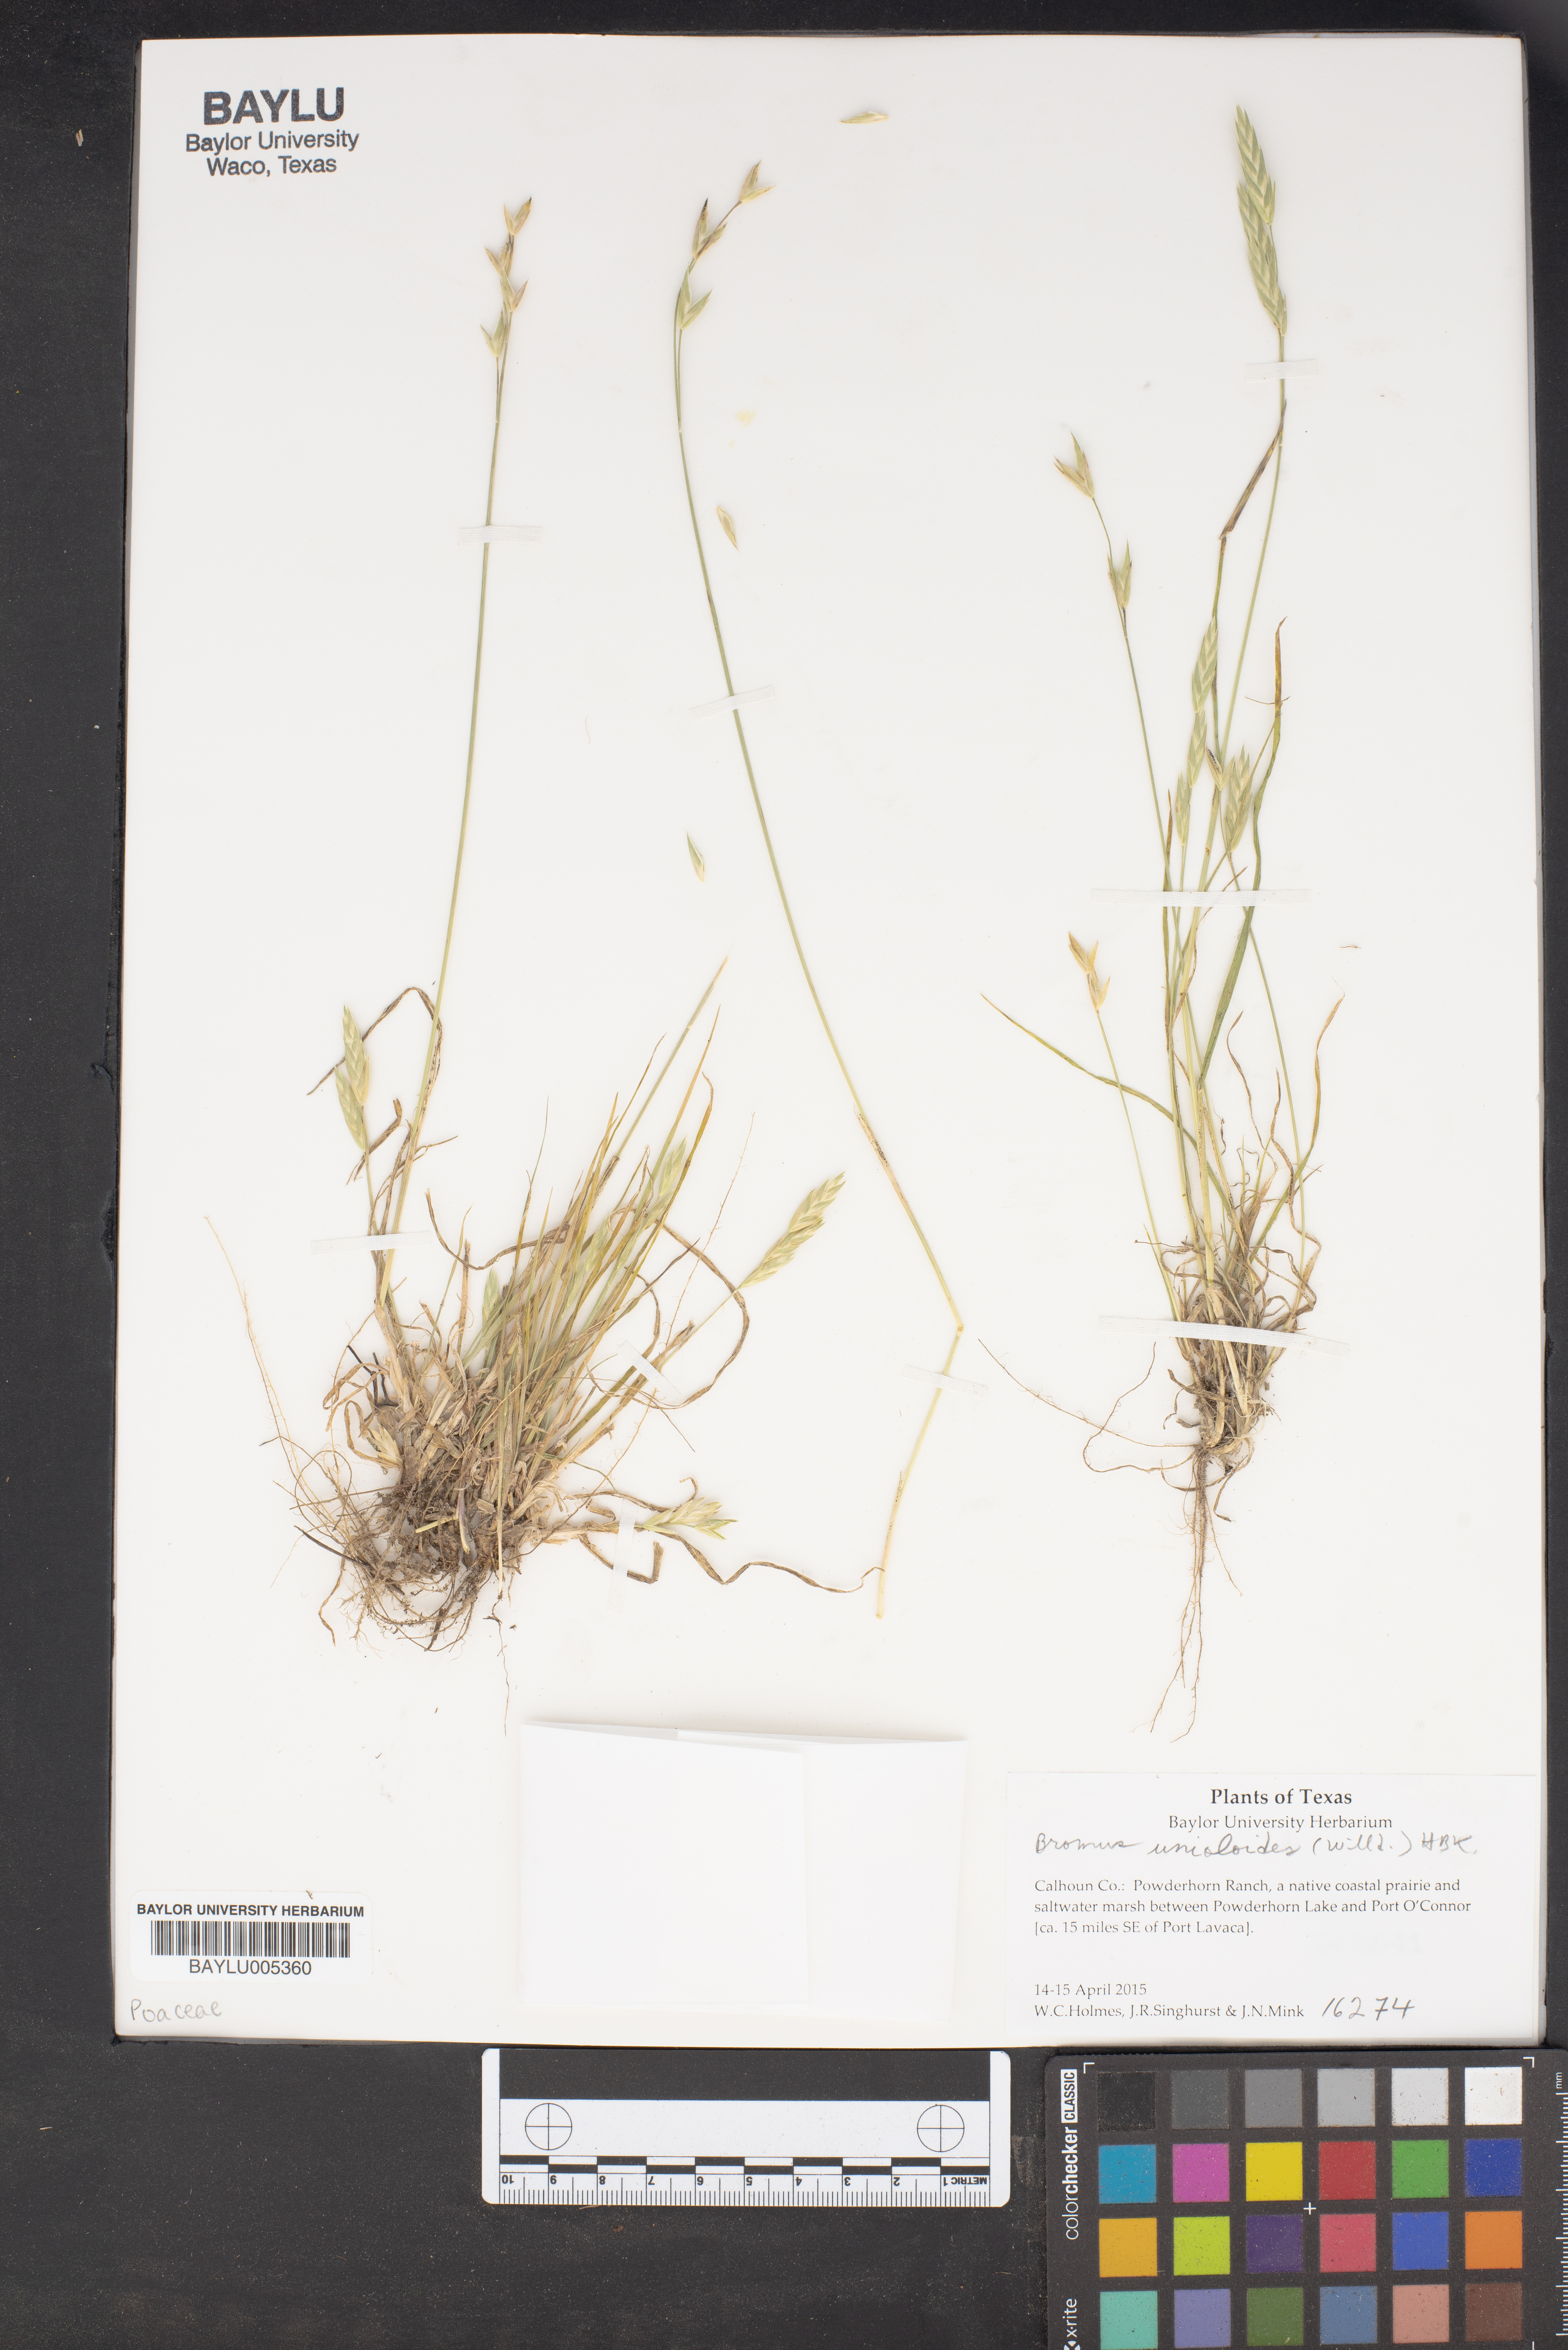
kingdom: Plantae
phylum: Tracheophyta
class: Liliopsida
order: Poales
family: Poaceae
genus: Bromus
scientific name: Bromus catharticus
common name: Rescuegrass
